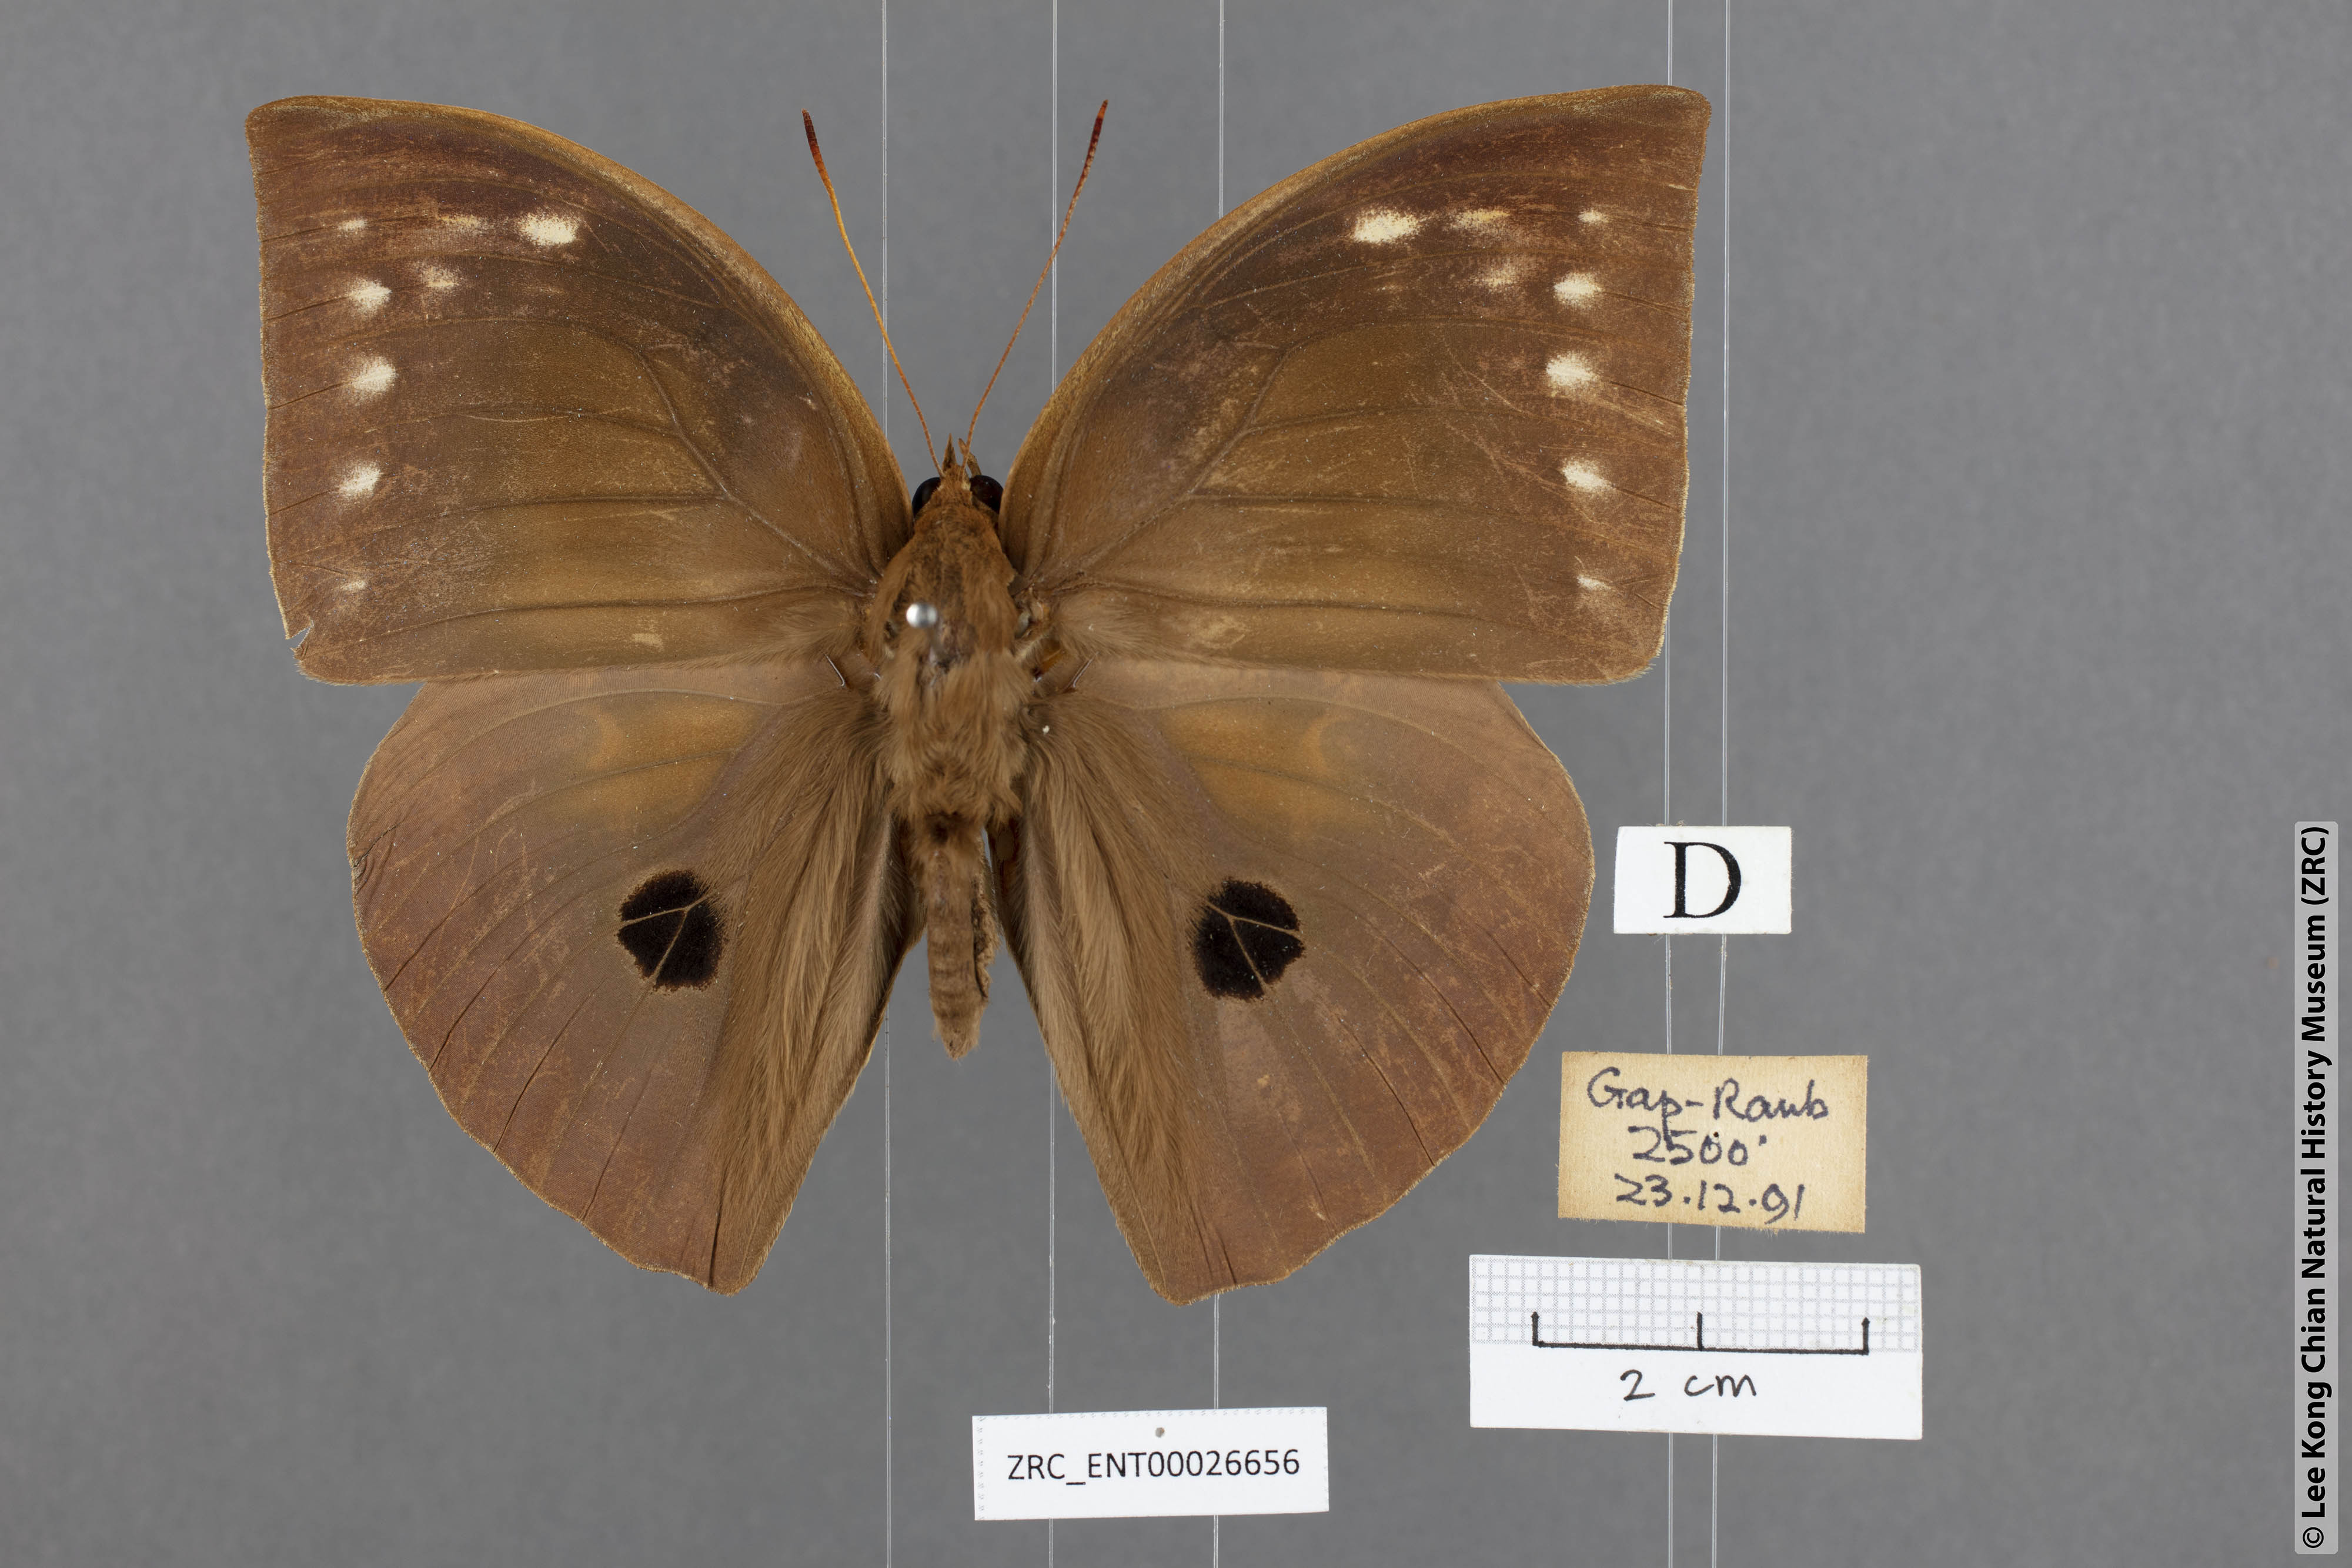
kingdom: Animalia
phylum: Arthropoda
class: Insecta
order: Lepidoptera
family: Nymphalidae
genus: Discophora
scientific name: Discophora timora
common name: Great duffer
